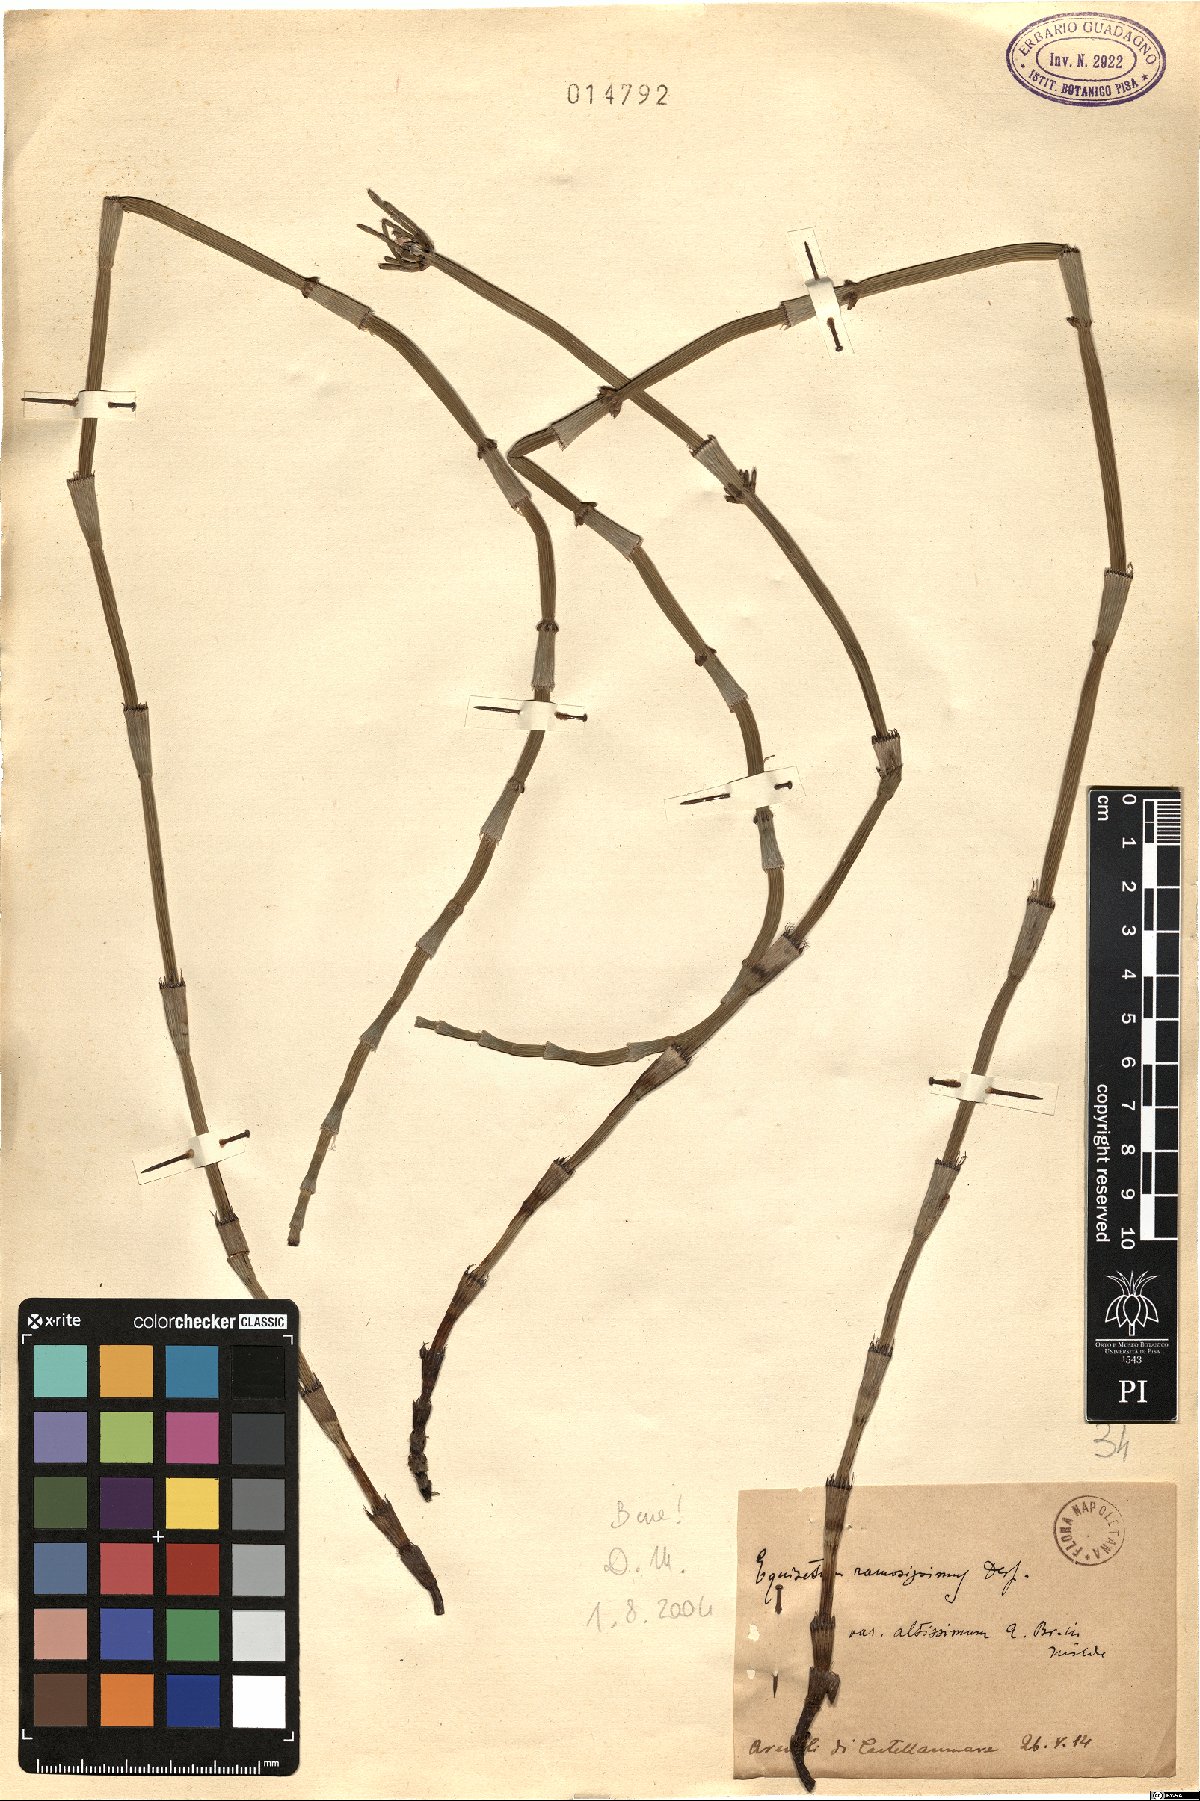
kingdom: Plantae
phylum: Tracheophyta
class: Polypodiopsida
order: Equisetales
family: Equisetaceae
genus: Equisetum
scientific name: Equisetum ramosissimum
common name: Branched horsetail
